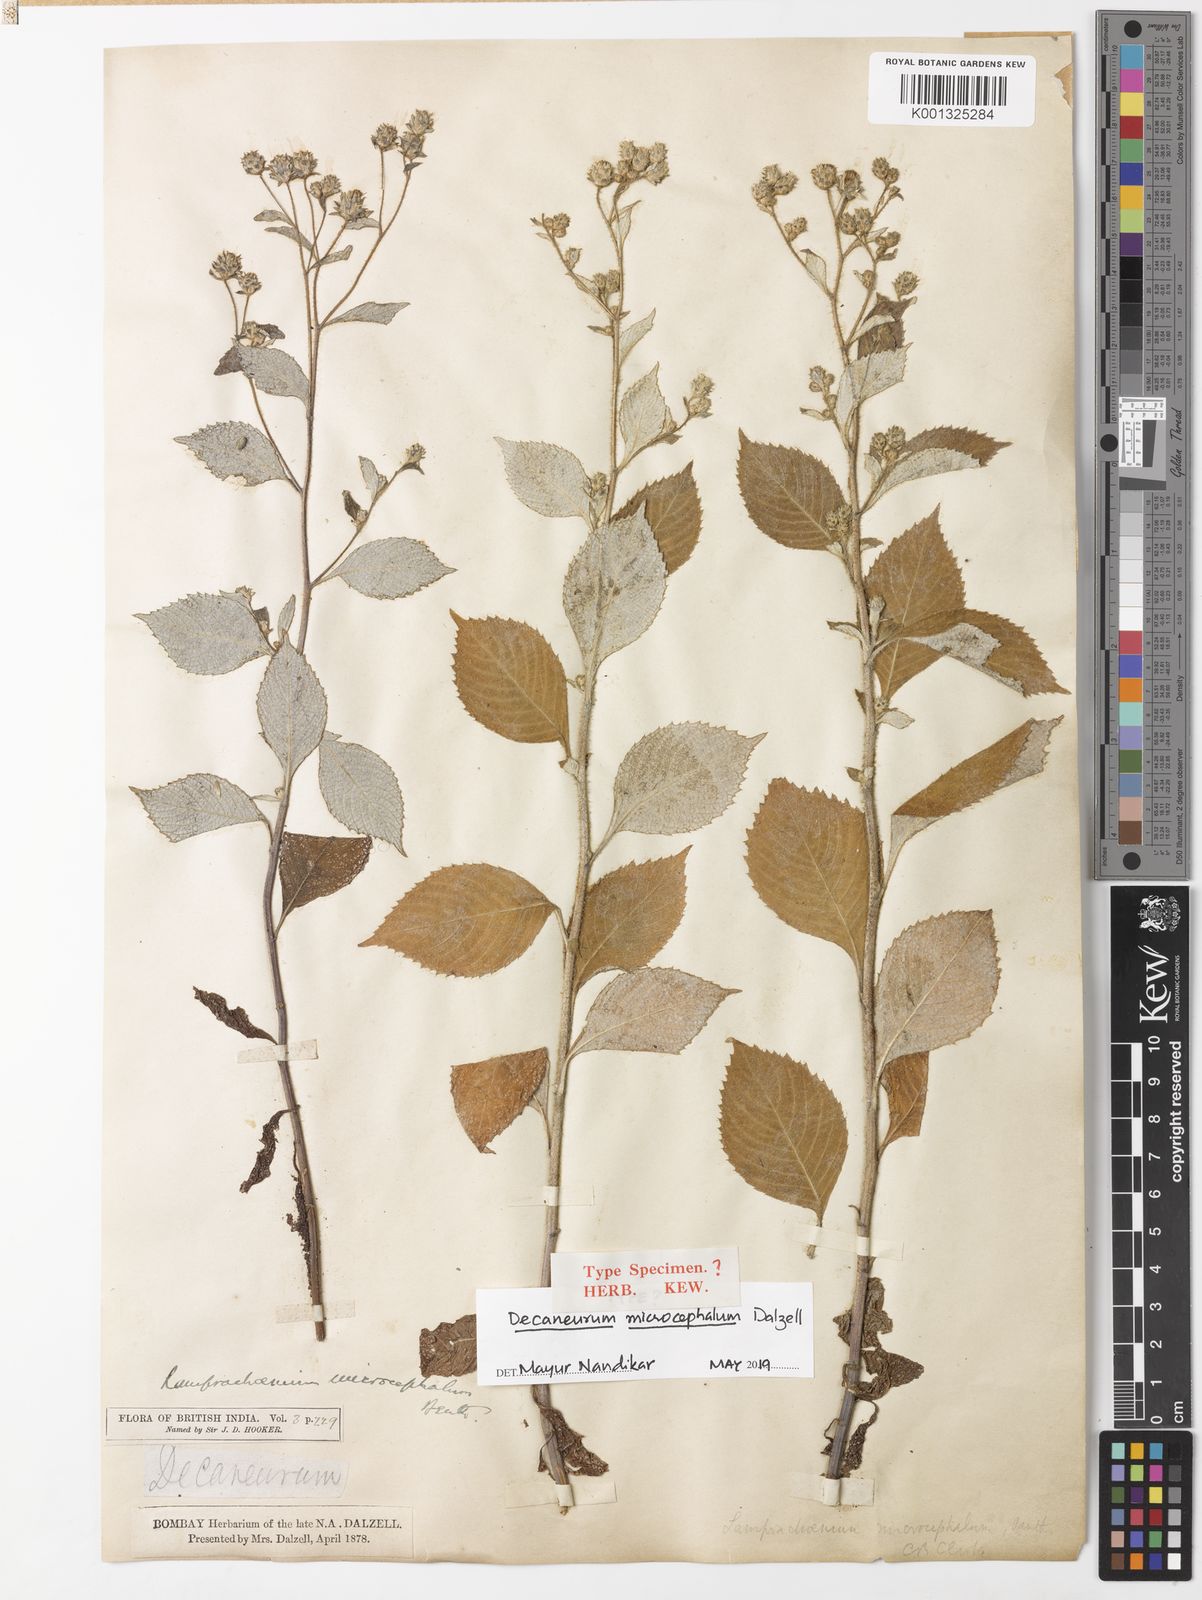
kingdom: Plantae
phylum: Tracheophyta
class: Magnoliopsida
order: Asterales
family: Asteraceae
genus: Phyllocephalum
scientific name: Phyllocephalum microcephalum
